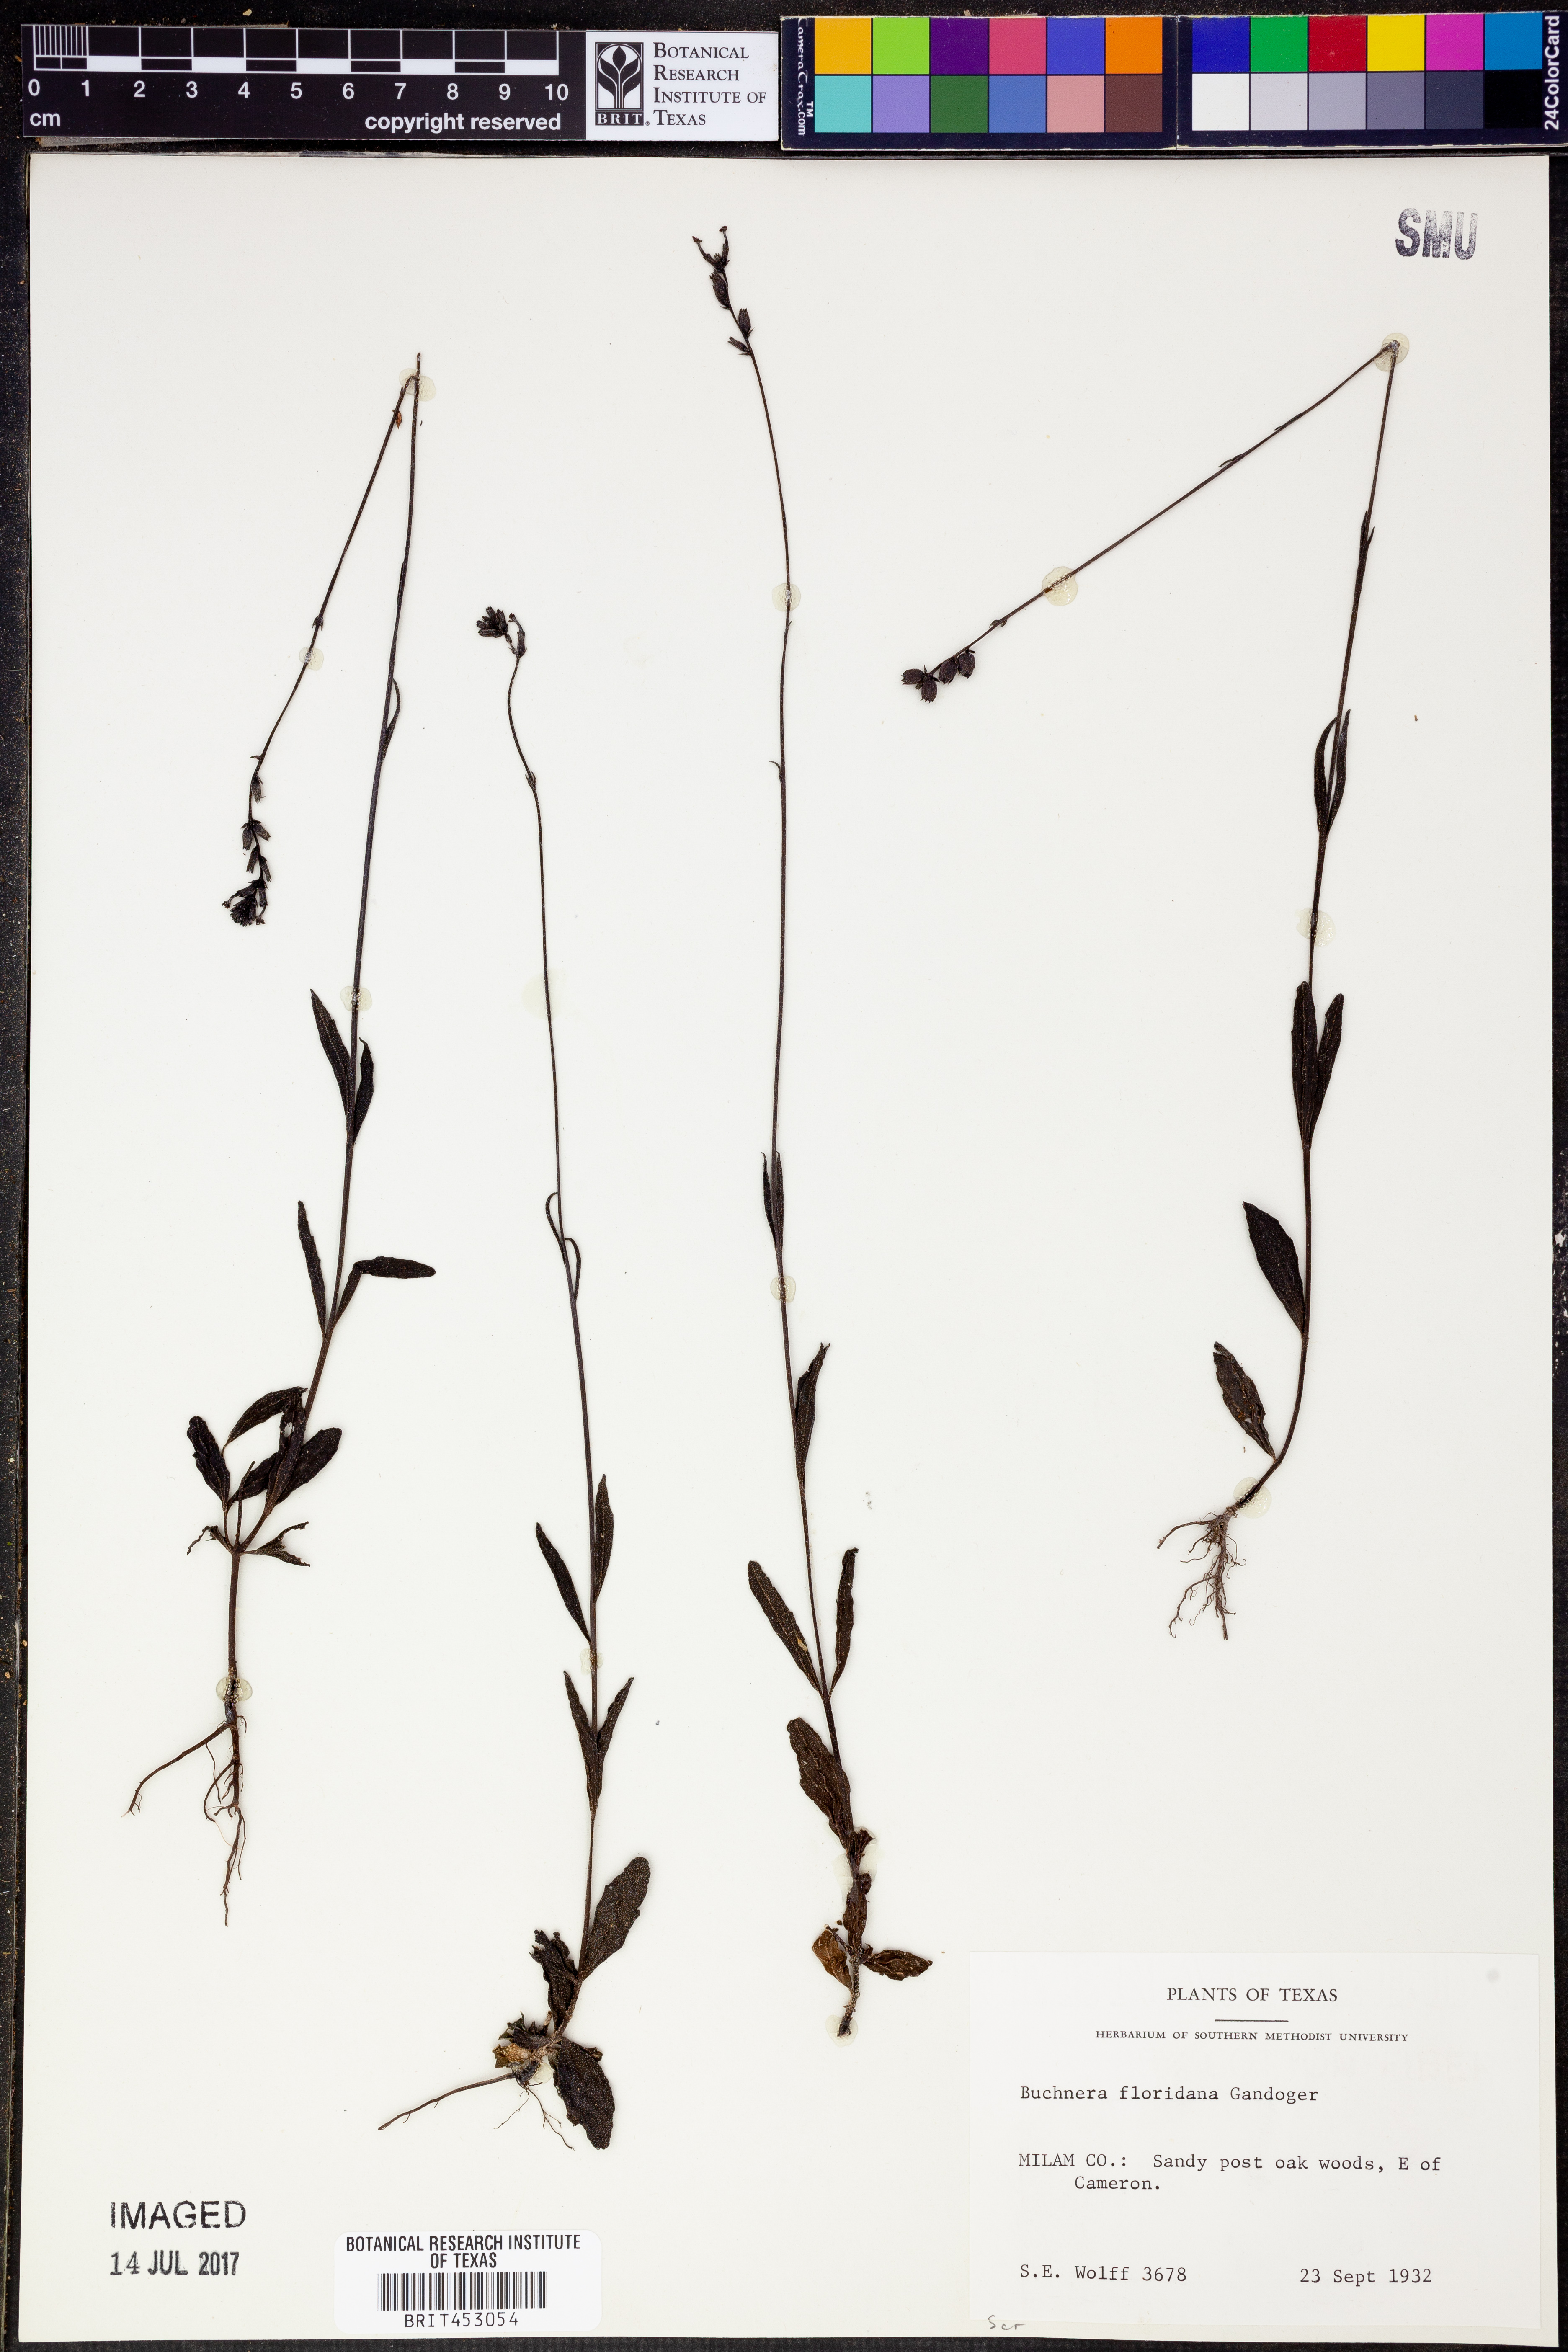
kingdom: Plantae
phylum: Tracheophyta
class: Magnoliopsida
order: Lamiales
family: Orobanchaceae
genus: Buchnera
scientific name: Buchnera floridana
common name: Florida bluehearts
